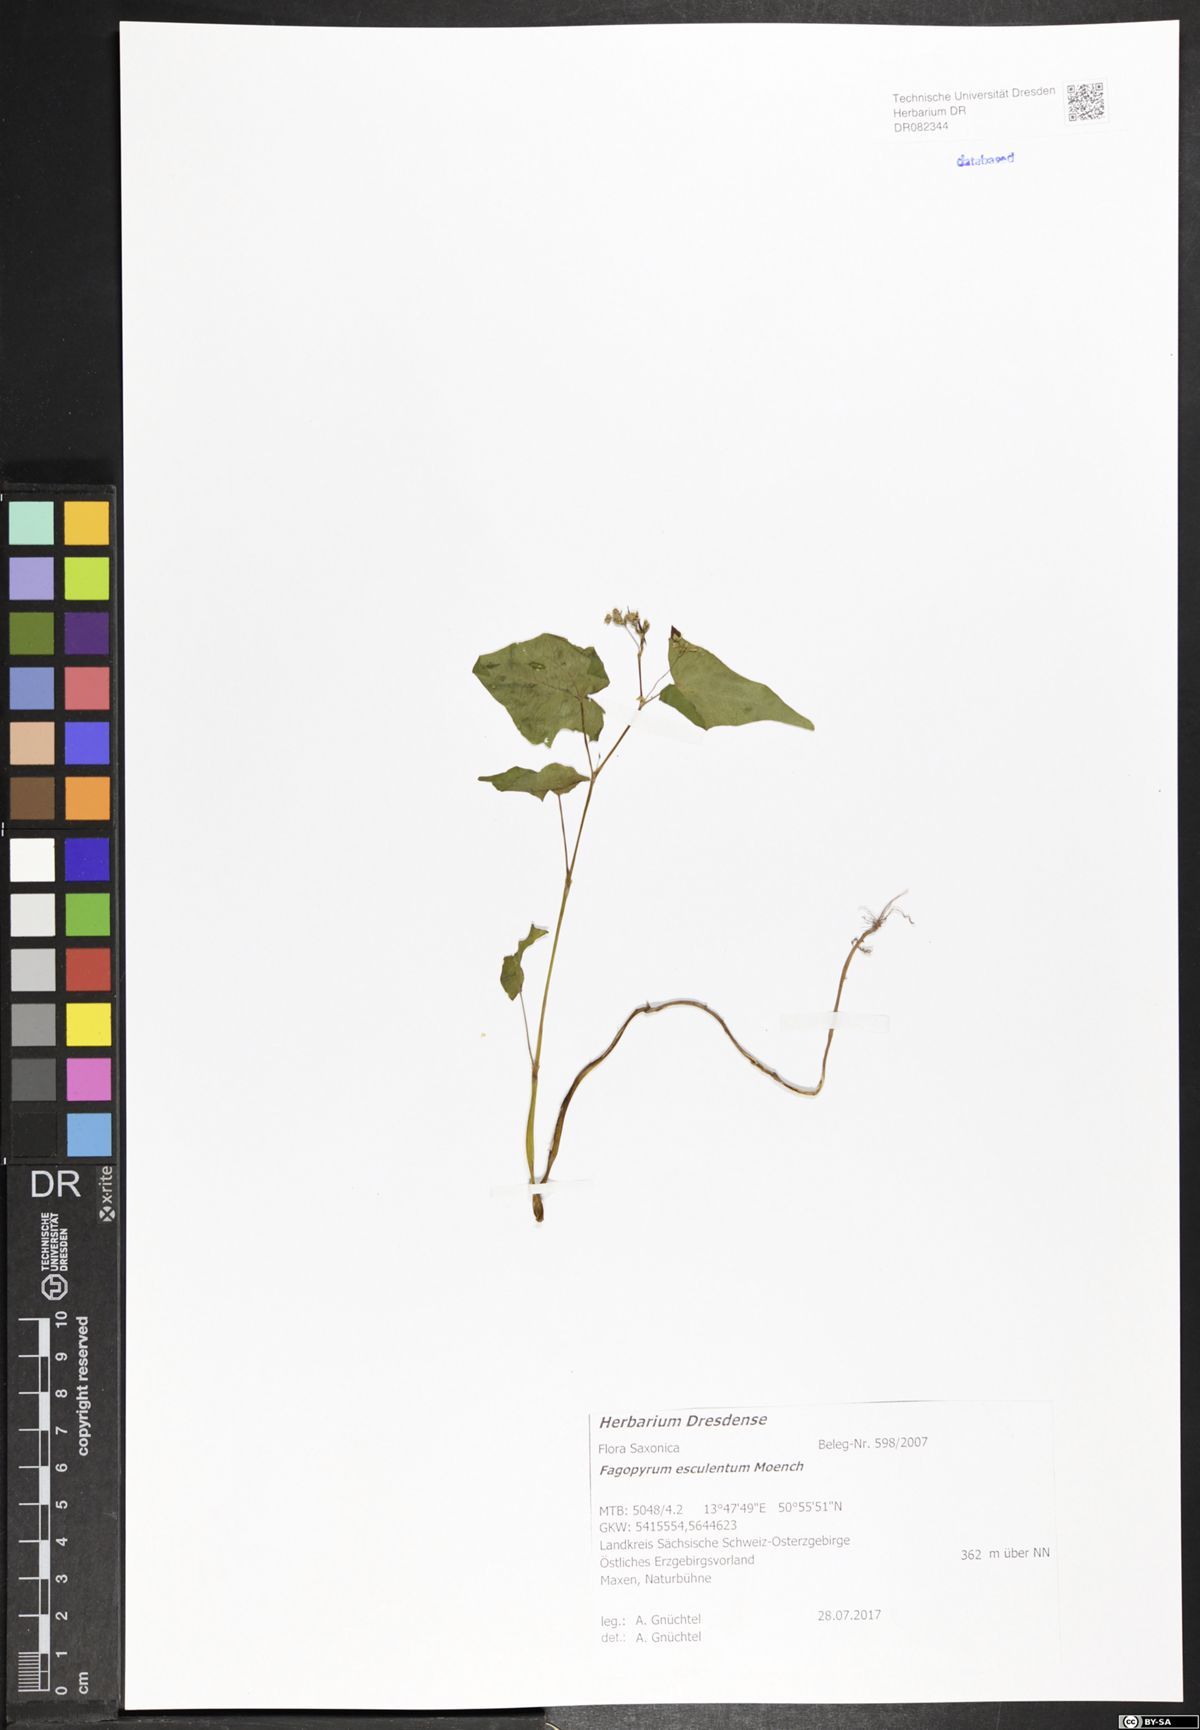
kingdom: Plantae
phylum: Tracheophyta
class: Magnoliopsida
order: Caryophyllales
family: Polygonaceae
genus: Fagopyrum
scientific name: Fagopyrum esculentum
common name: Buckwheat
